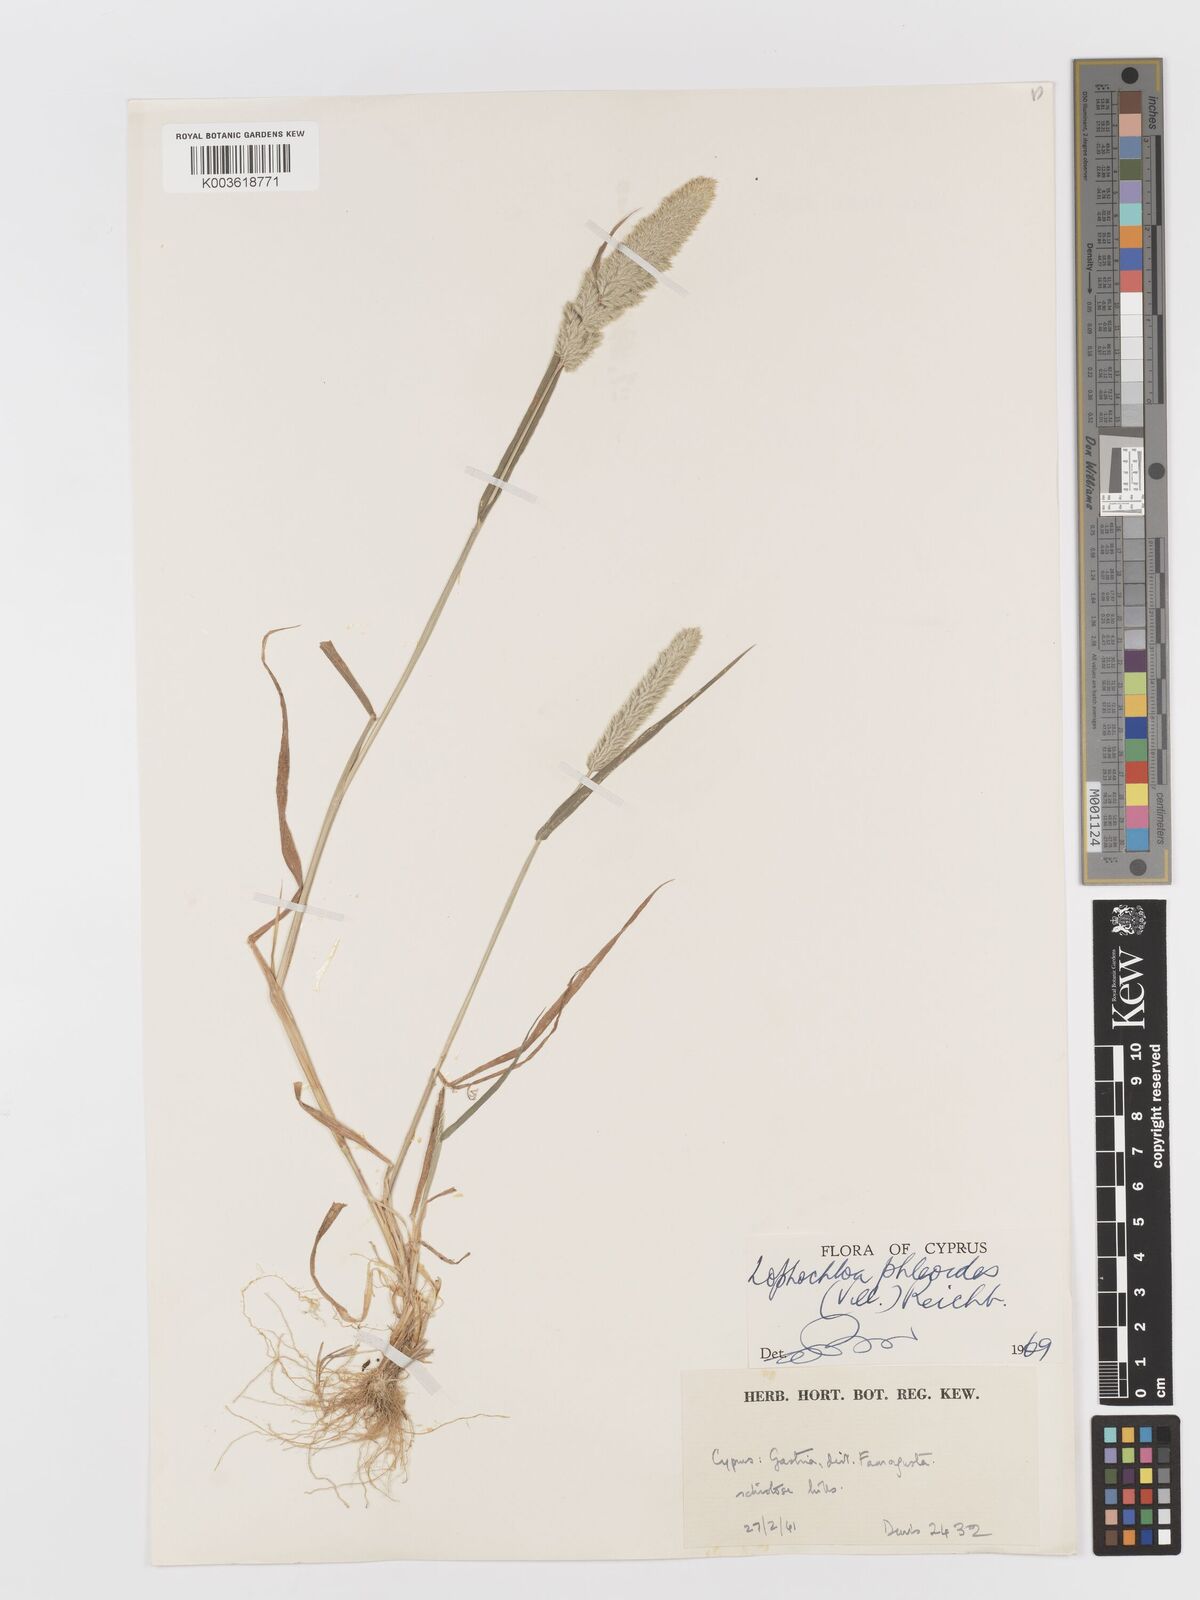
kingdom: Plantae
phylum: Tracheophyta
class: Liliopsida
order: Poales
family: Poaceae
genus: Rostraria
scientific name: Rostraria cristata
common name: Mediterranean hair-grass
